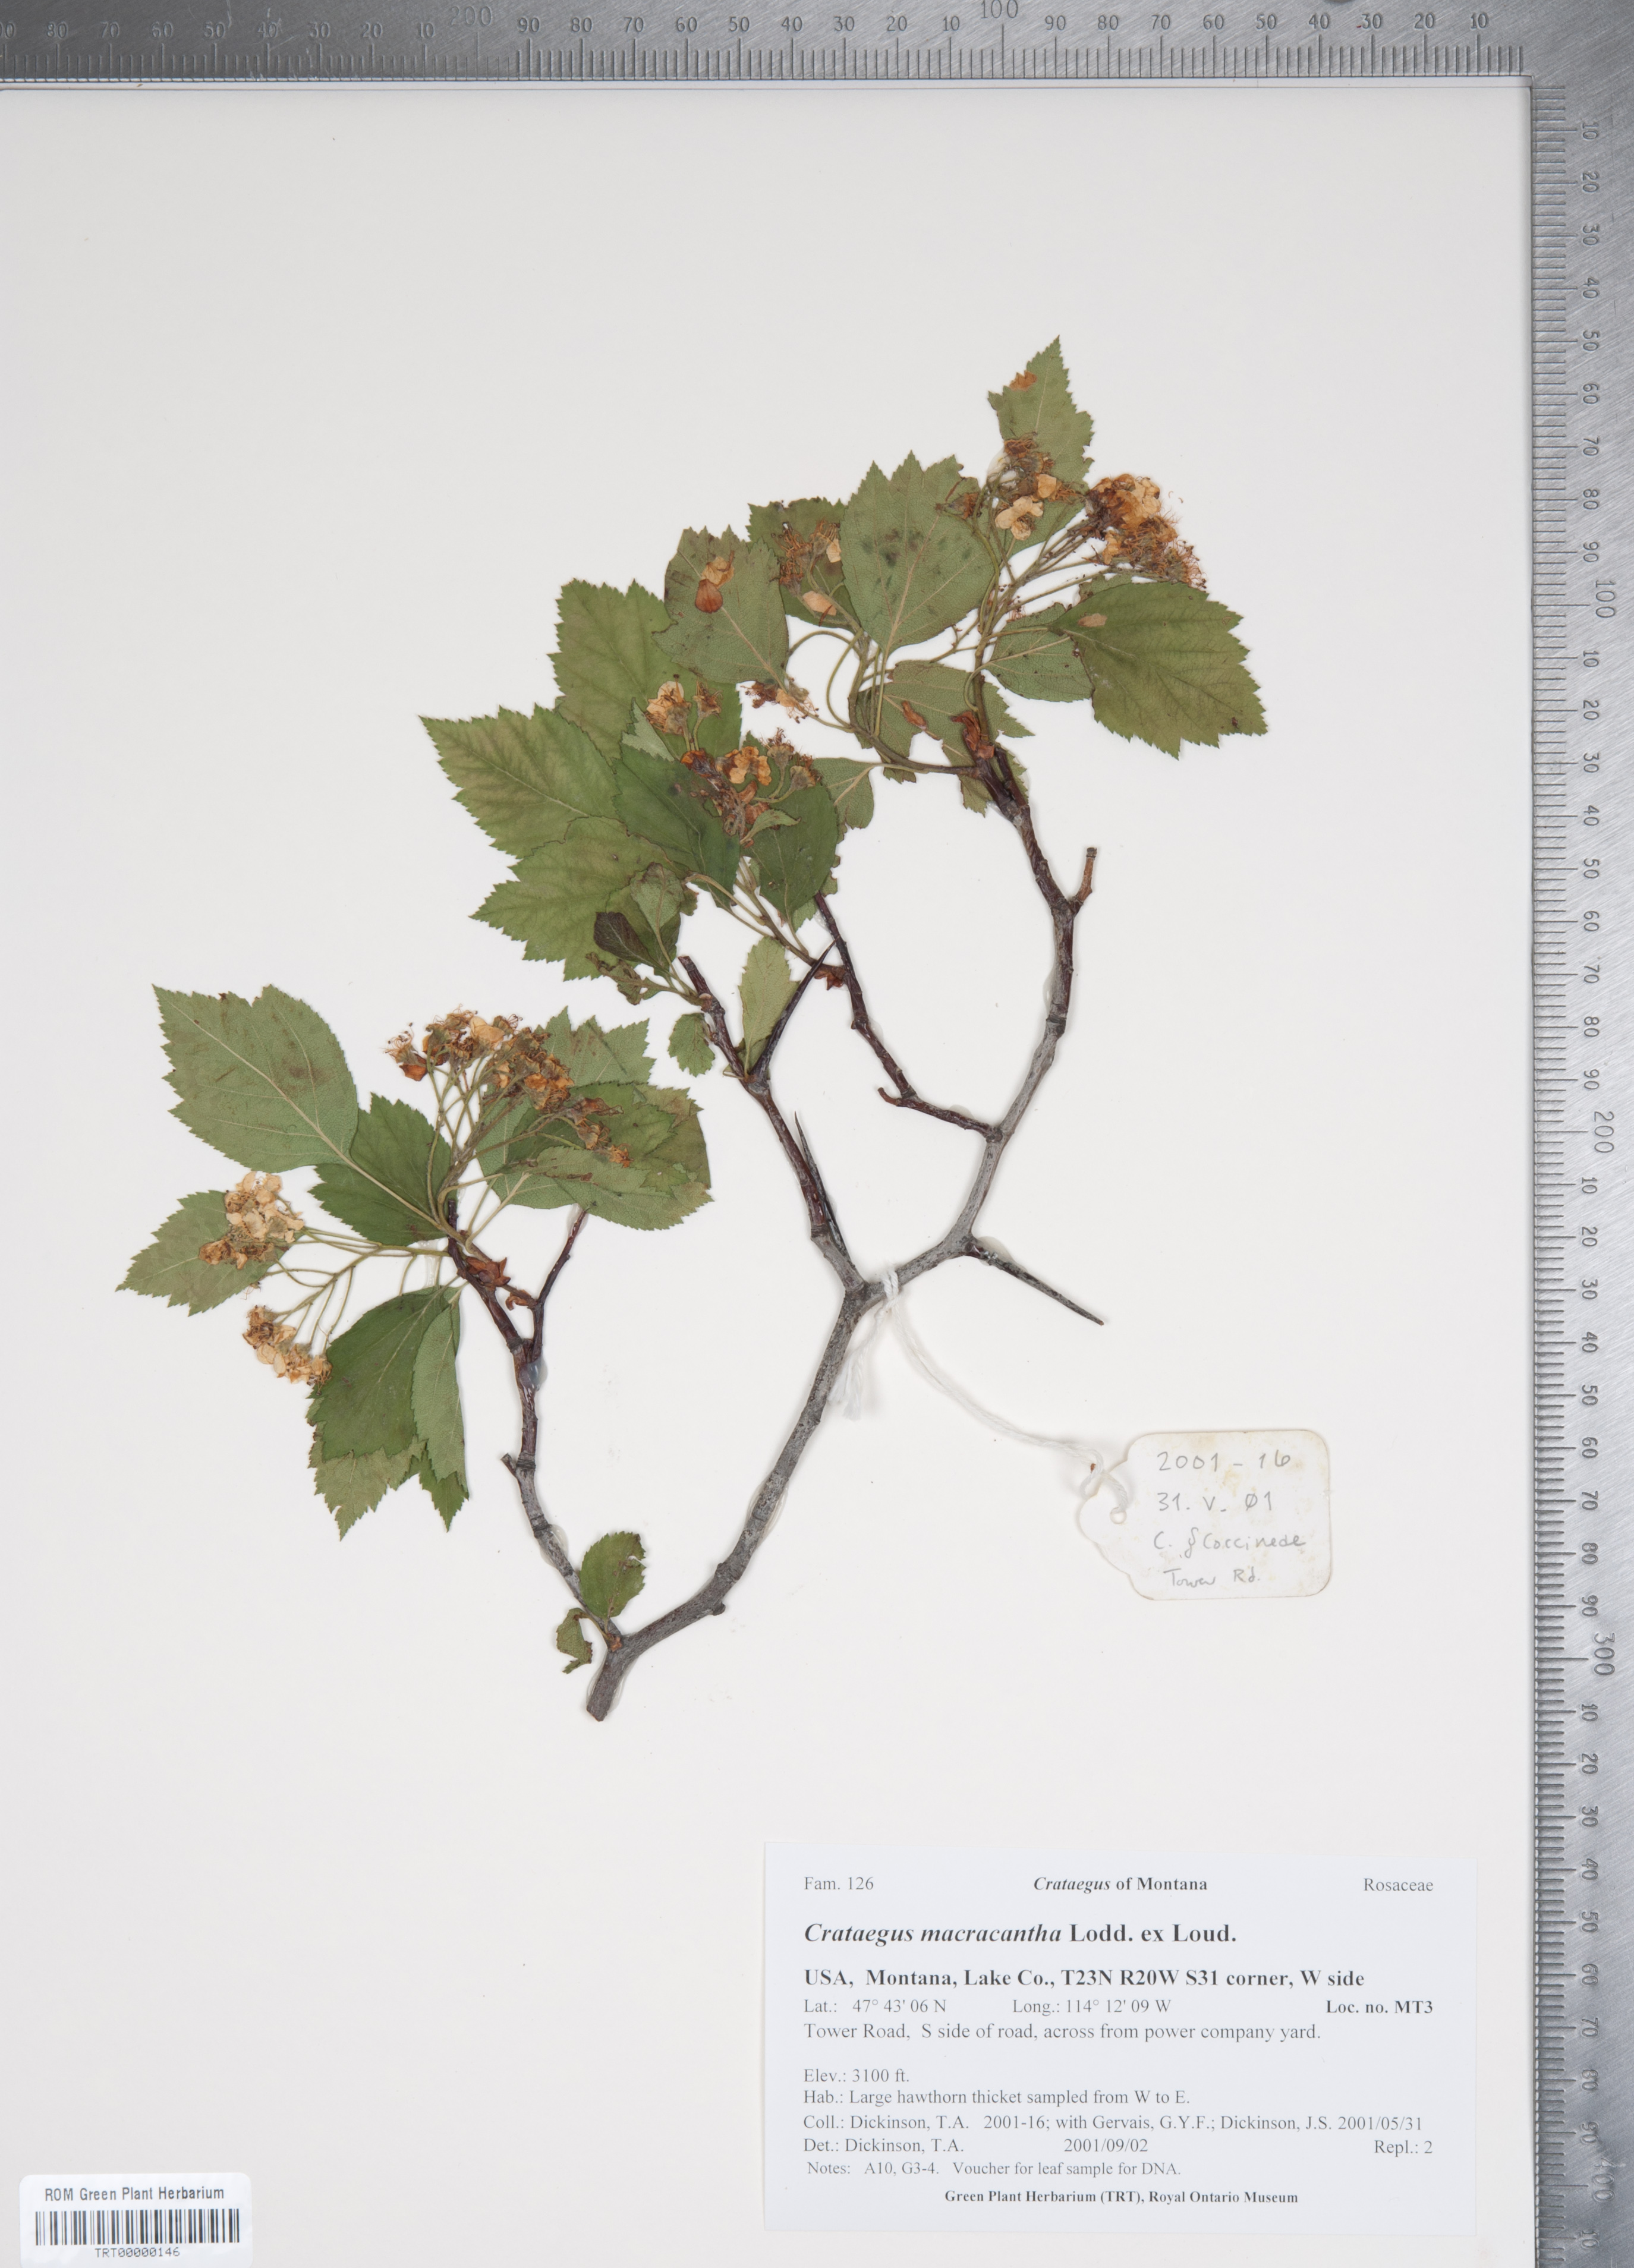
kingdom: Plantae
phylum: Tracheophyta
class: Magnoliopsida
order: Rosales
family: Rosaceae
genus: Crataegus
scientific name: Crataegus macracantha
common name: Large-thorn hawthorn
